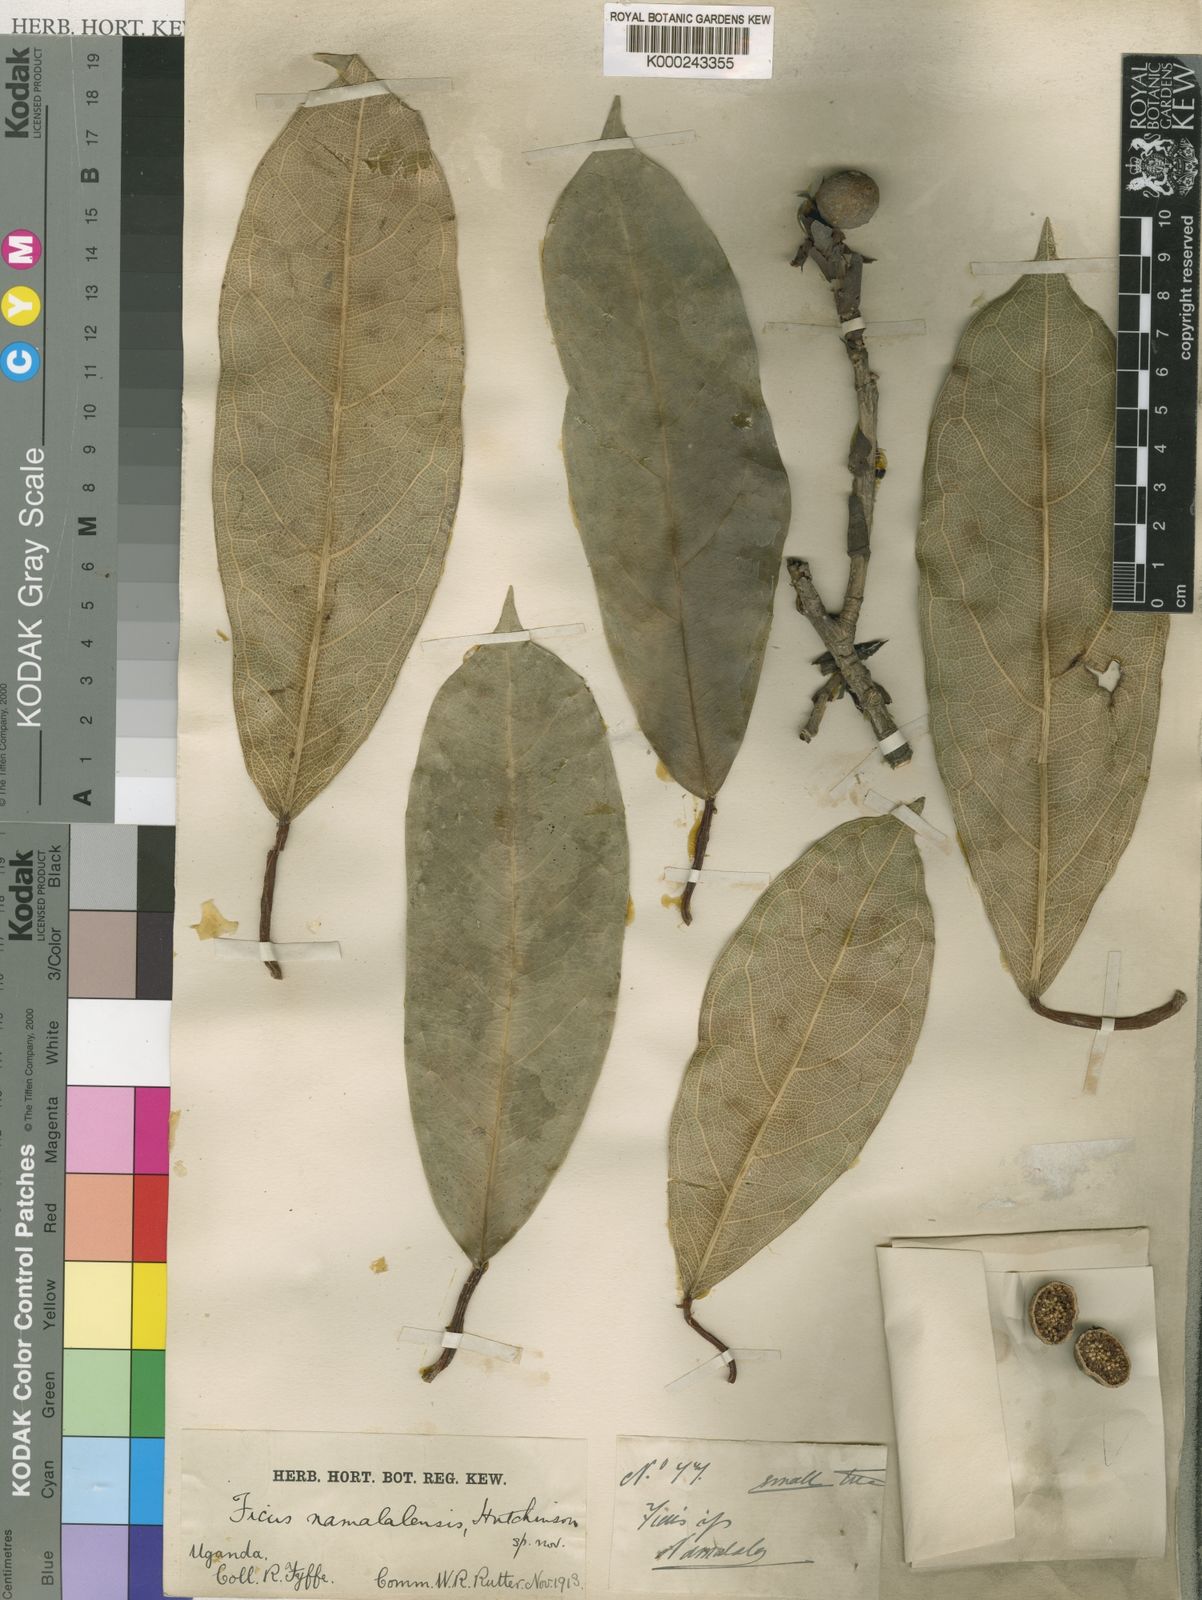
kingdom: Plantae
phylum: Tracheophyta
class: Magnoliopsida
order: Rosales
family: Moraceae
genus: Ficus
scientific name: Ficus
